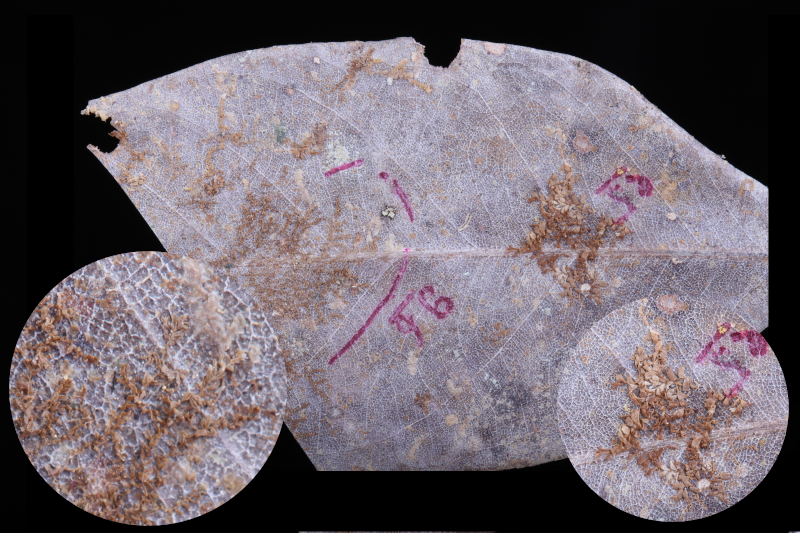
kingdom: Plantae
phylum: Marchantiophyta
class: Jungermanniopsida
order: Porellales
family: Lejeuneaceae
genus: Cololejeunea
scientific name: Cololejeunea pseudofloccosa
